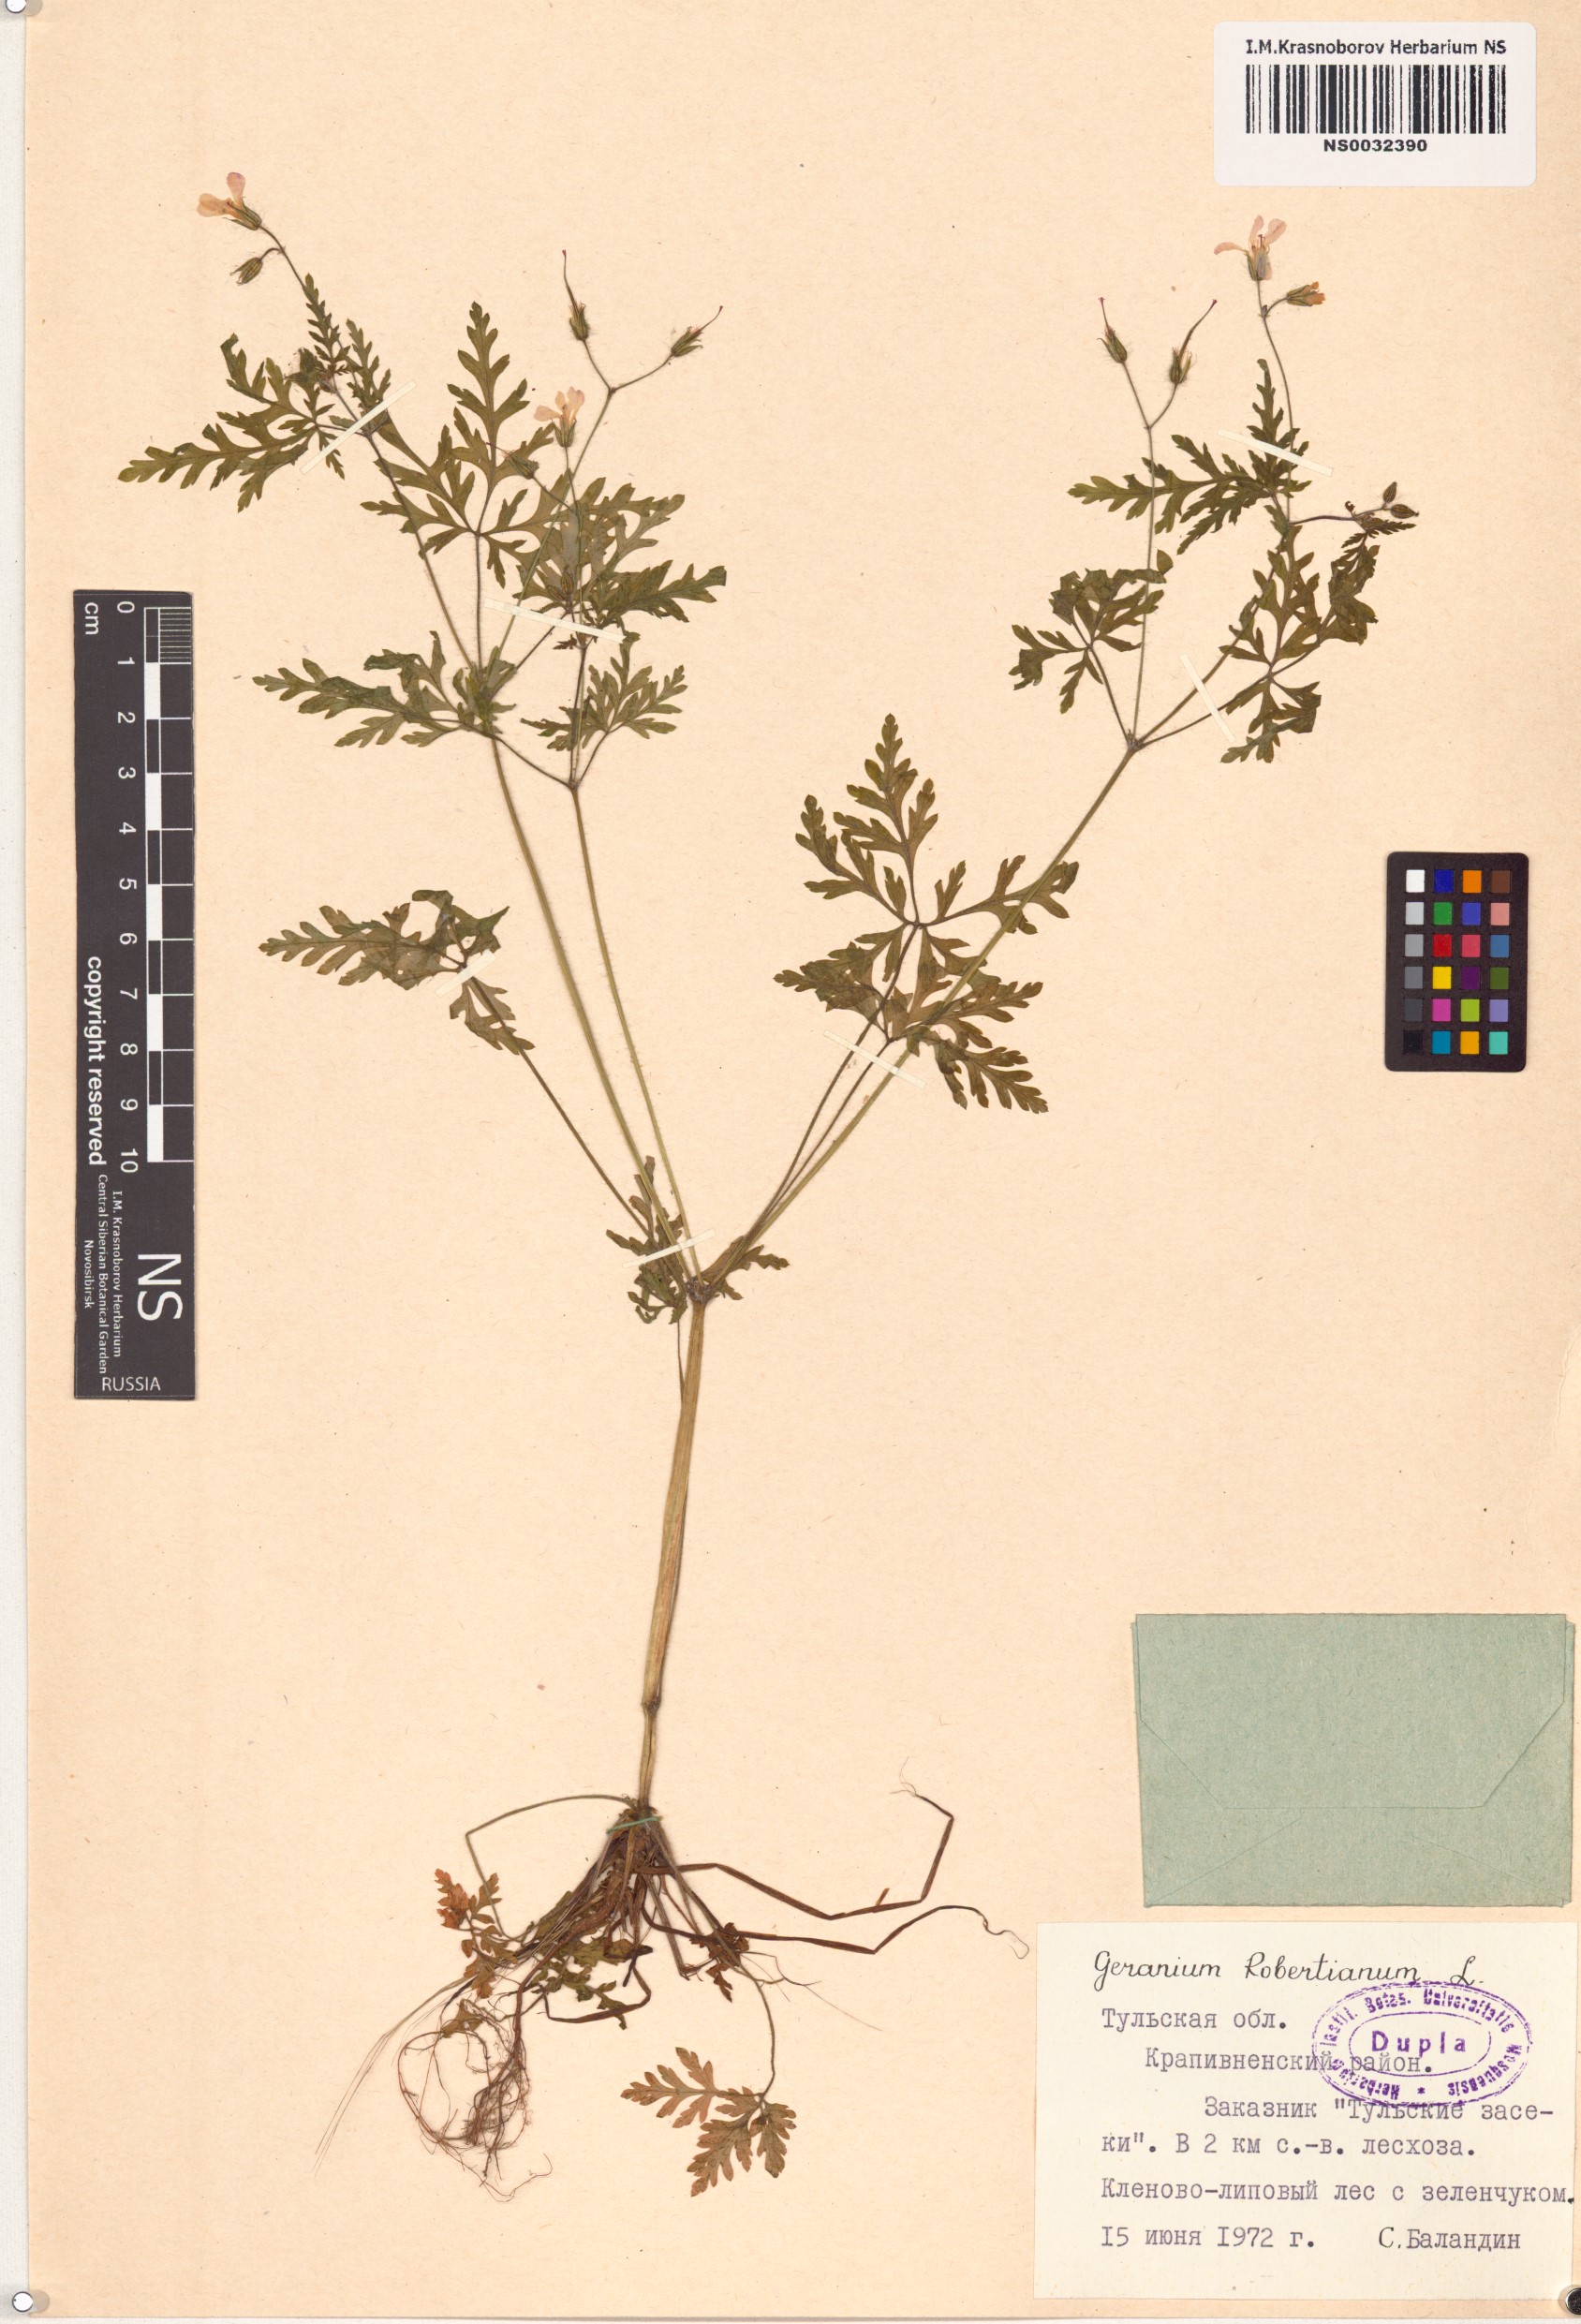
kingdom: Plantae
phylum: Tracheophyta
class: Magnoliopsida
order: Geraniales
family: Geraniaceae
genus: Geranium
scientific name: Geranium robertianum
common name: Herb-robert
